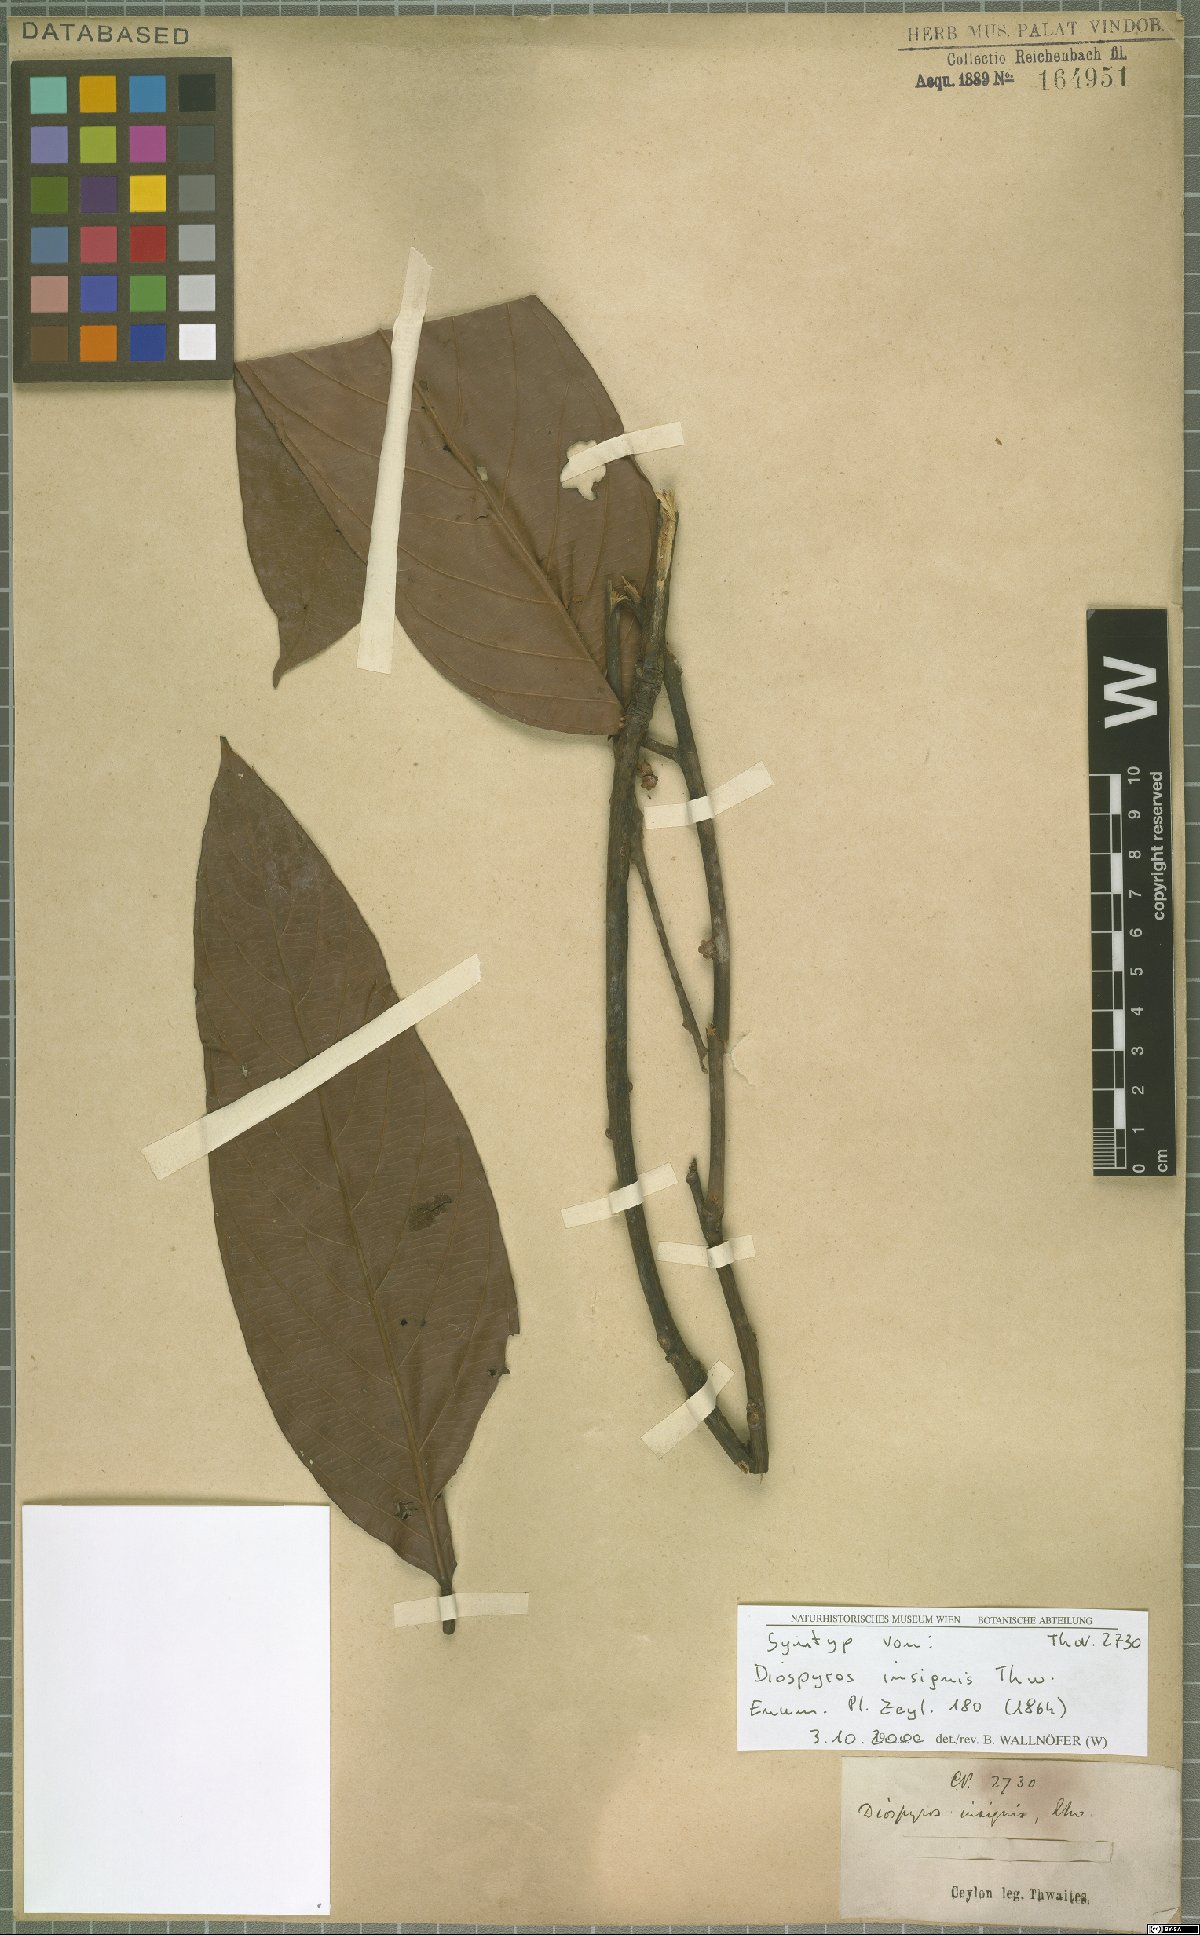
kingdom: Plantae
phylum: Tracheophyta
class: Magnoliopsida
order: Ericales
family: Ebenaceae
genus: Diospyros
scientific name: Diospyros insignis
